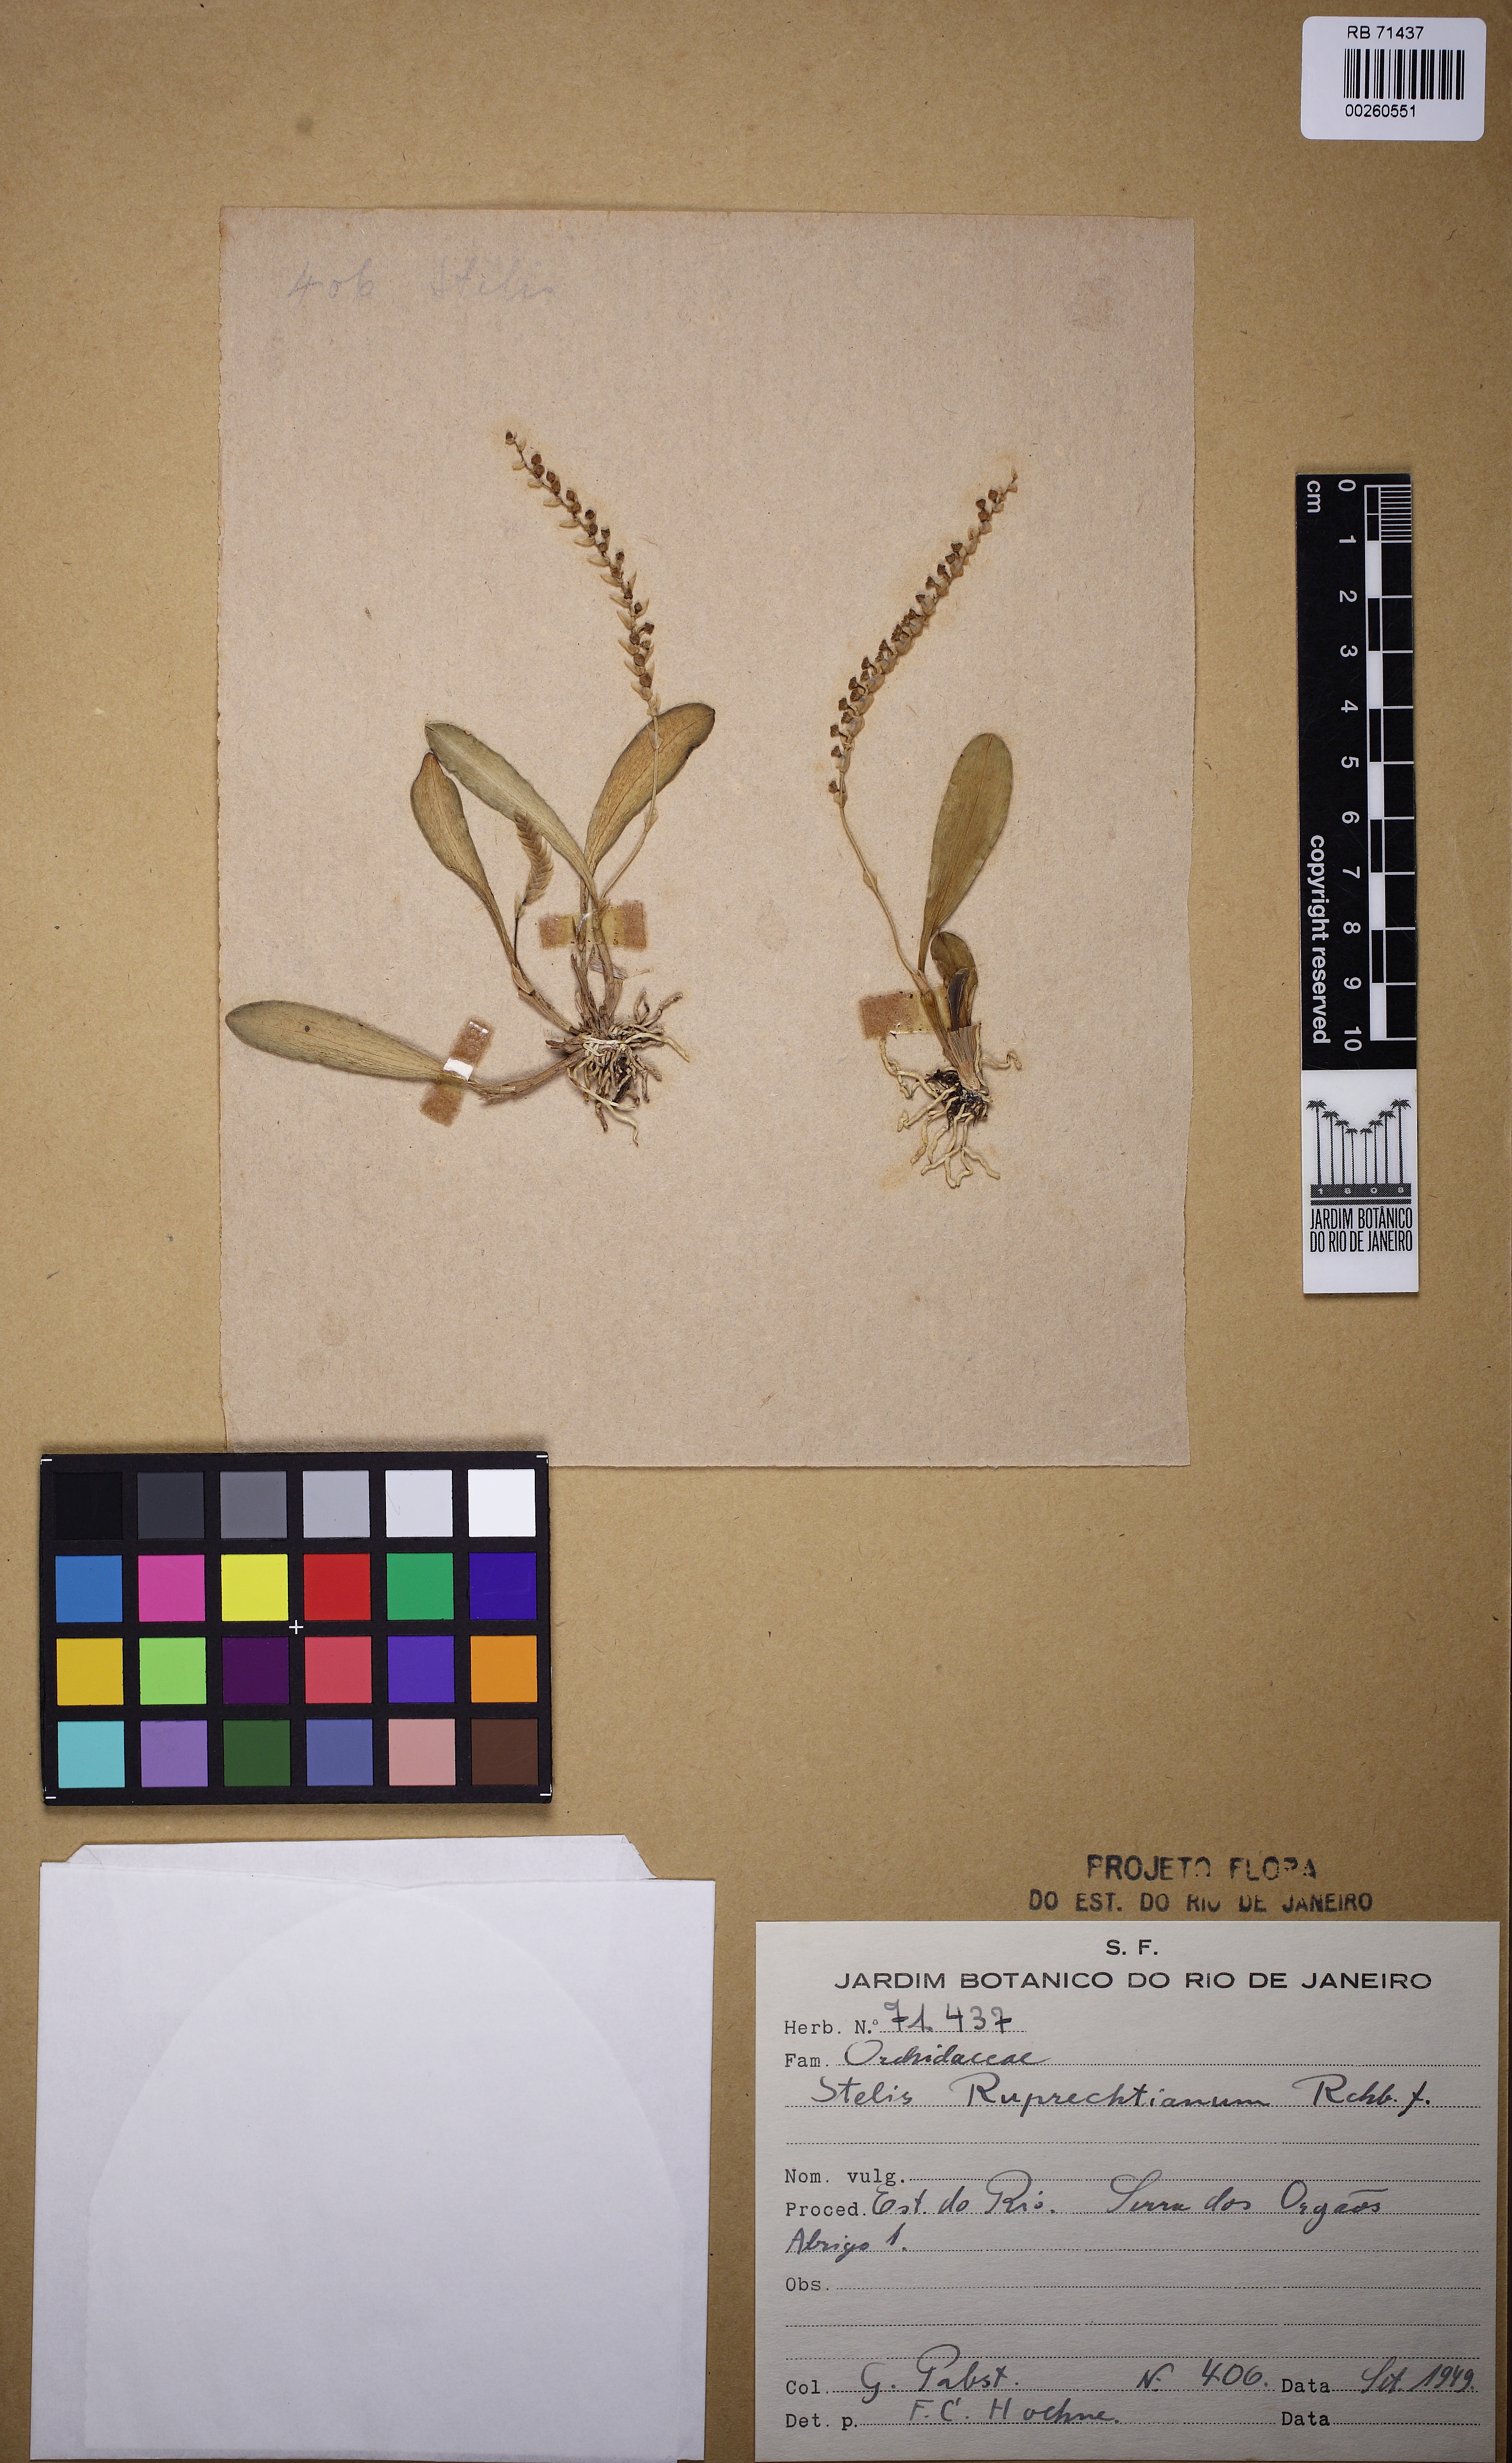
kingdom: Plantae
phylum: Tracheophyta
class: Liliopsida
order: Asparagales
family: Orchidaceae
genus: Stelis
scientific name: Stelis ruprechtiana
